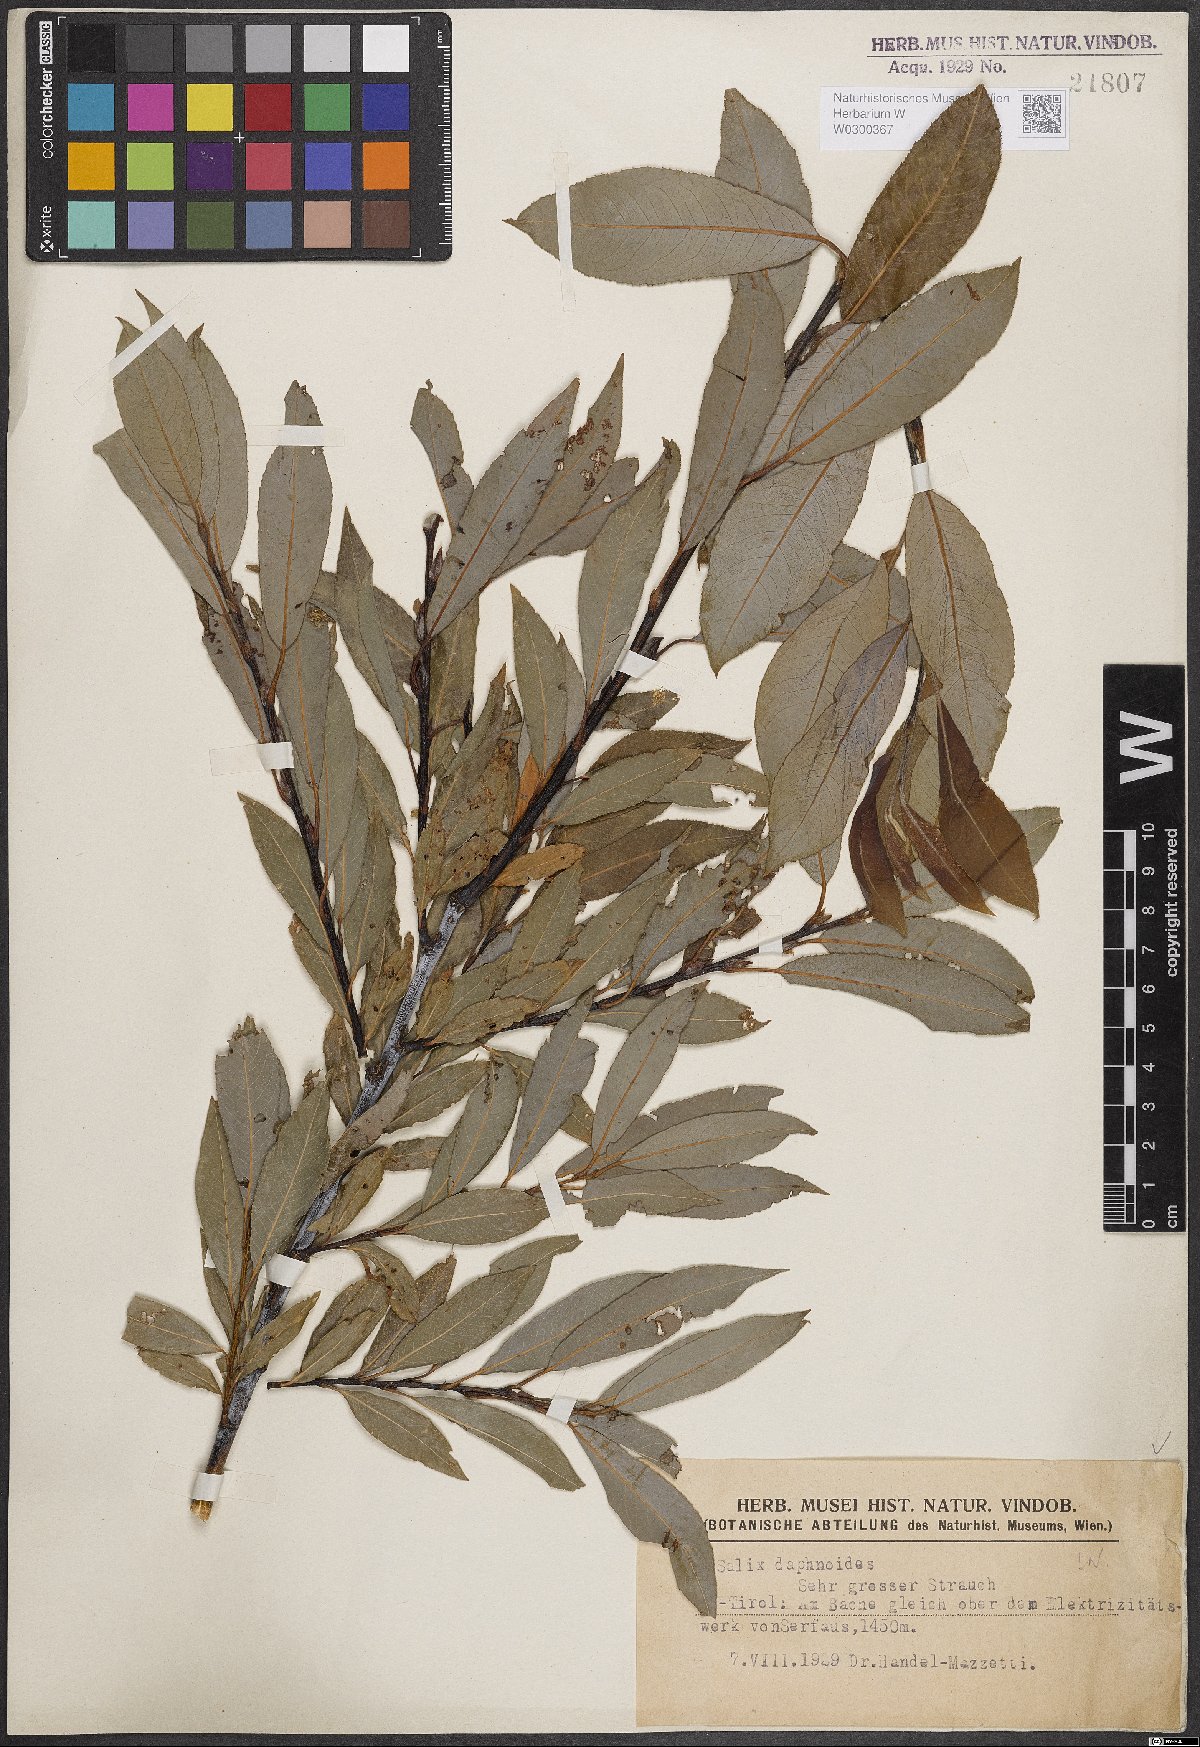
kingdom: Plantae
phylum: Tracheophyta
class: Magnoliopsida
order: Malpighiales
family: Salicaceae
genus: Salix
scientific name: Salix daphnoides
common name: European violet-willow
